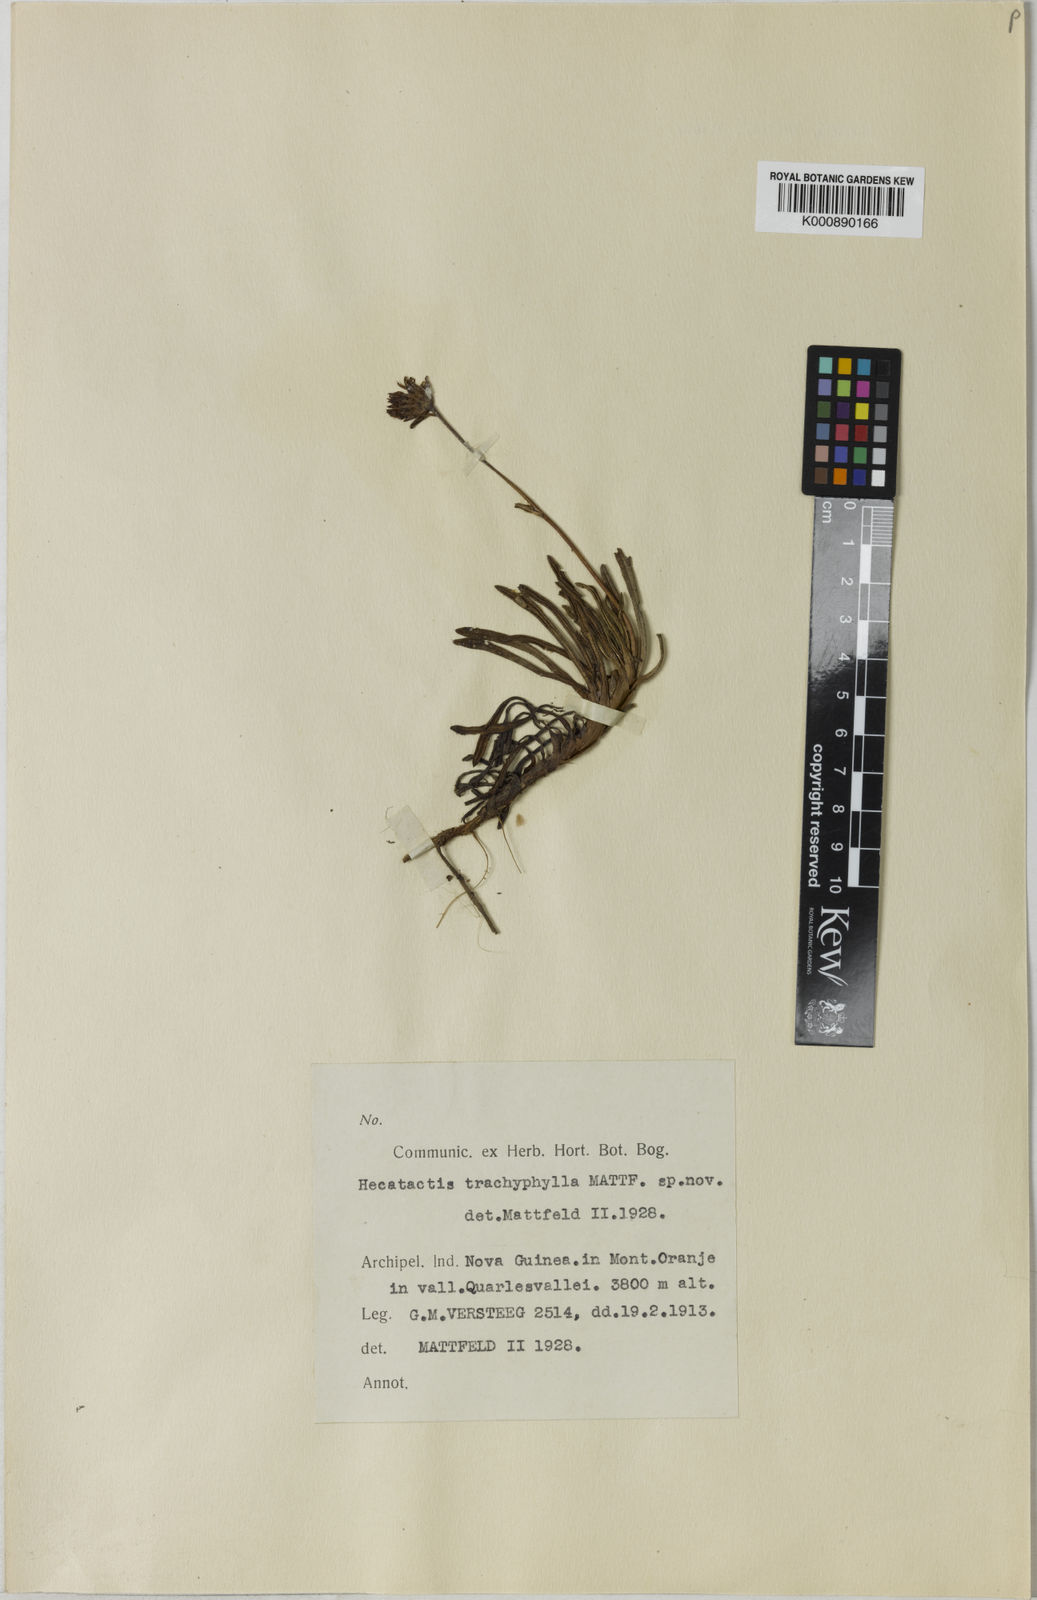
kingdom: Plantae
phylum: Tracheophyta
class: Magnoliopsida
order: Asterales
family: Asteraceae
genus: Keysseria
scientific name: Keysseria radicans
